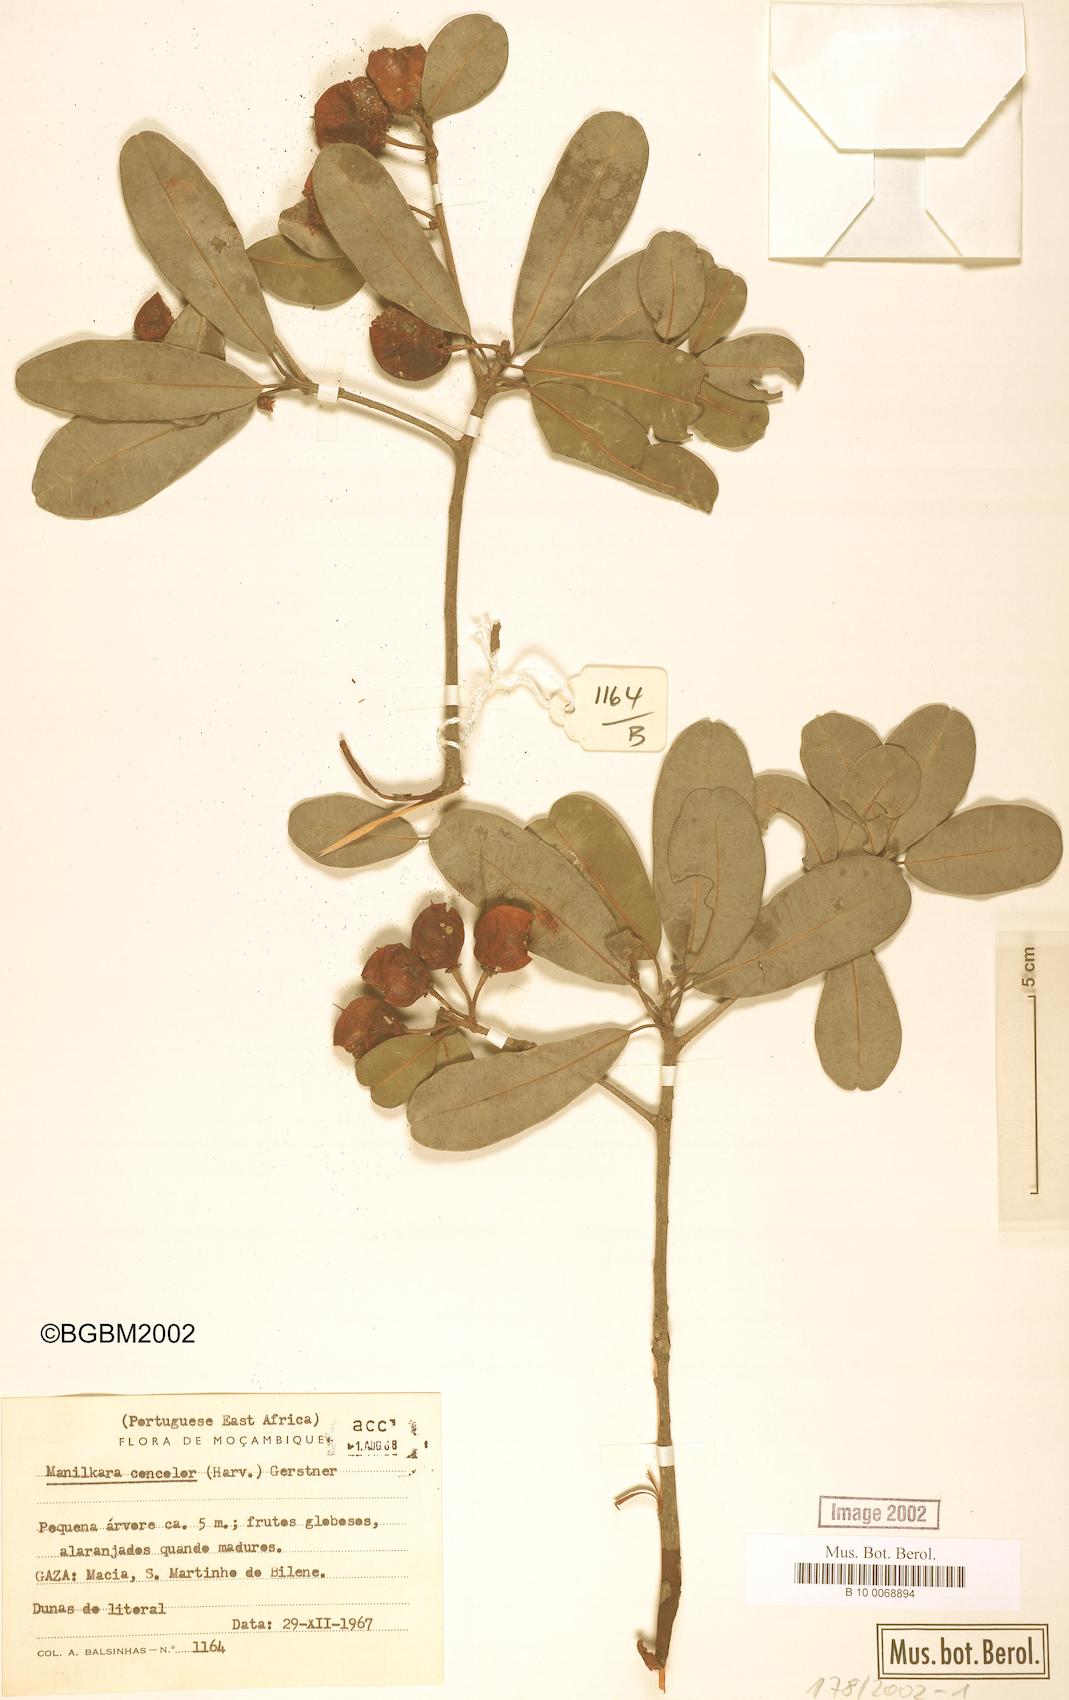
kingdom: Plantae
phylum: Tracheophyta
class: Magnoliopsida
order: Ericales
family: Sapotaceae
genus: Manilkara
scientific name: Manilkara concolor
